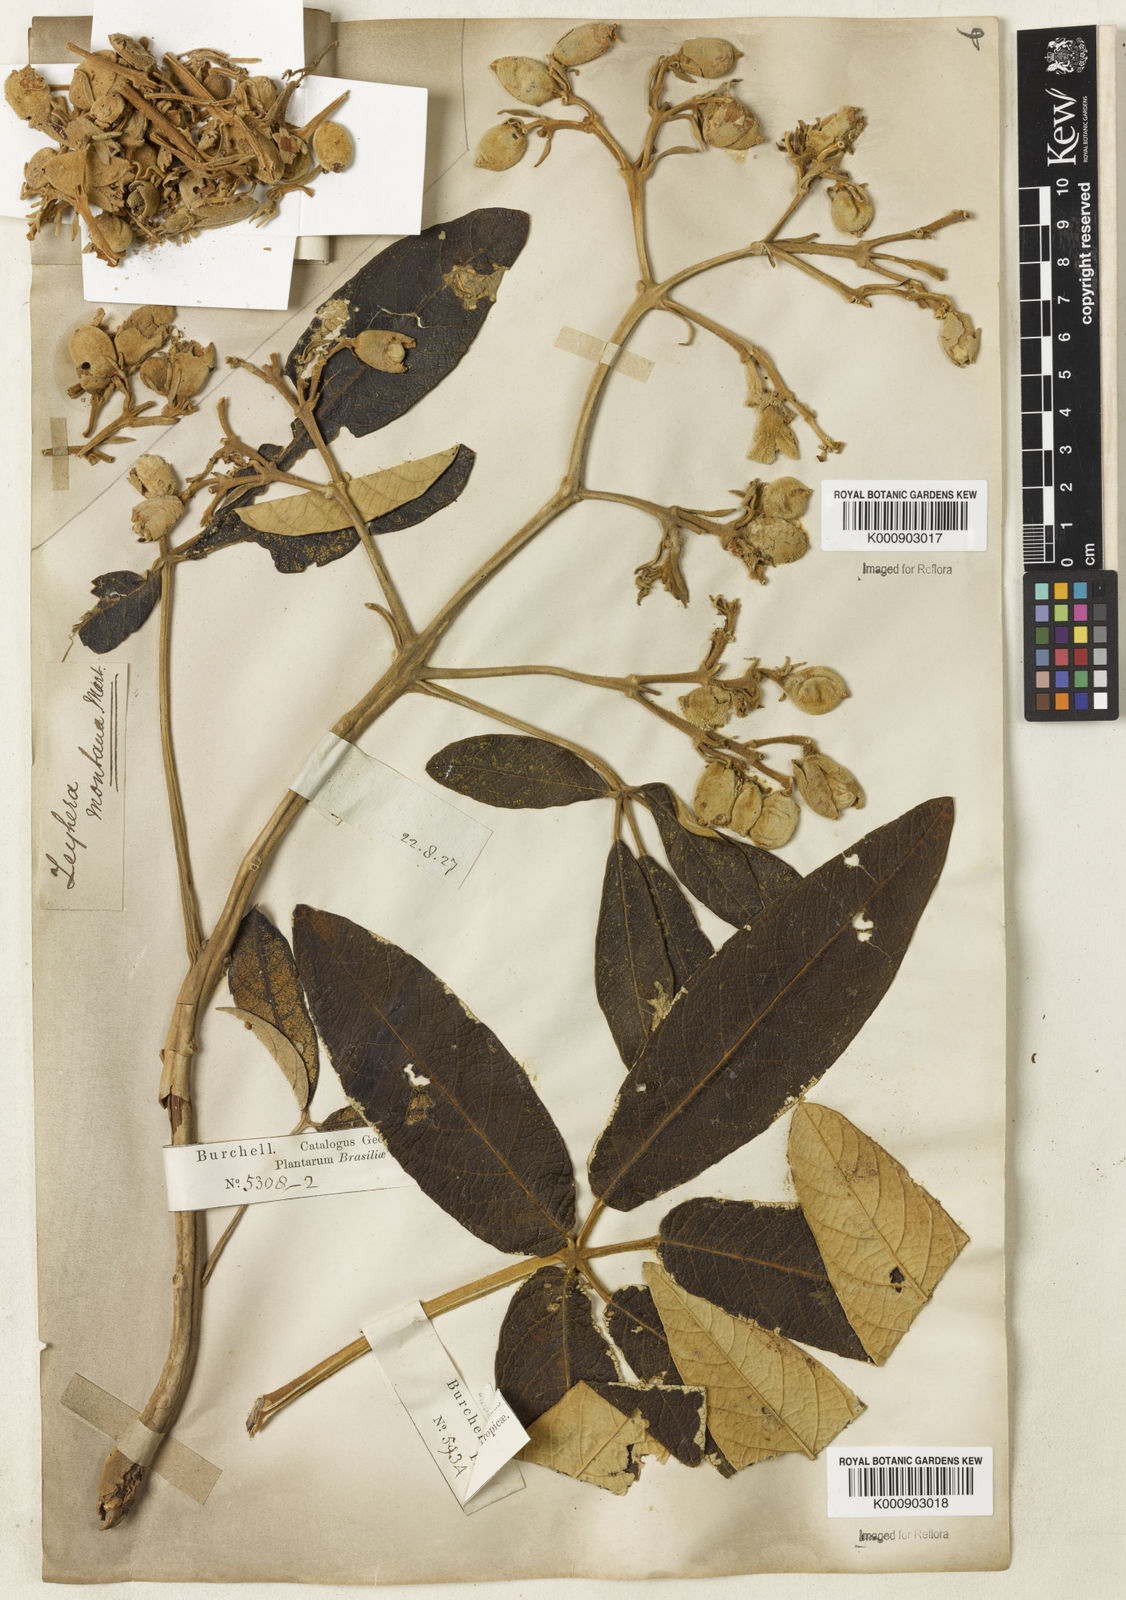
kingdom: Plantae
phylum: Tracheophyta
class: Magnoliopsida
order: Lamiales
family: Bignoniaceae
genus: Zeyheria
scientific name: Zeyheria montana
